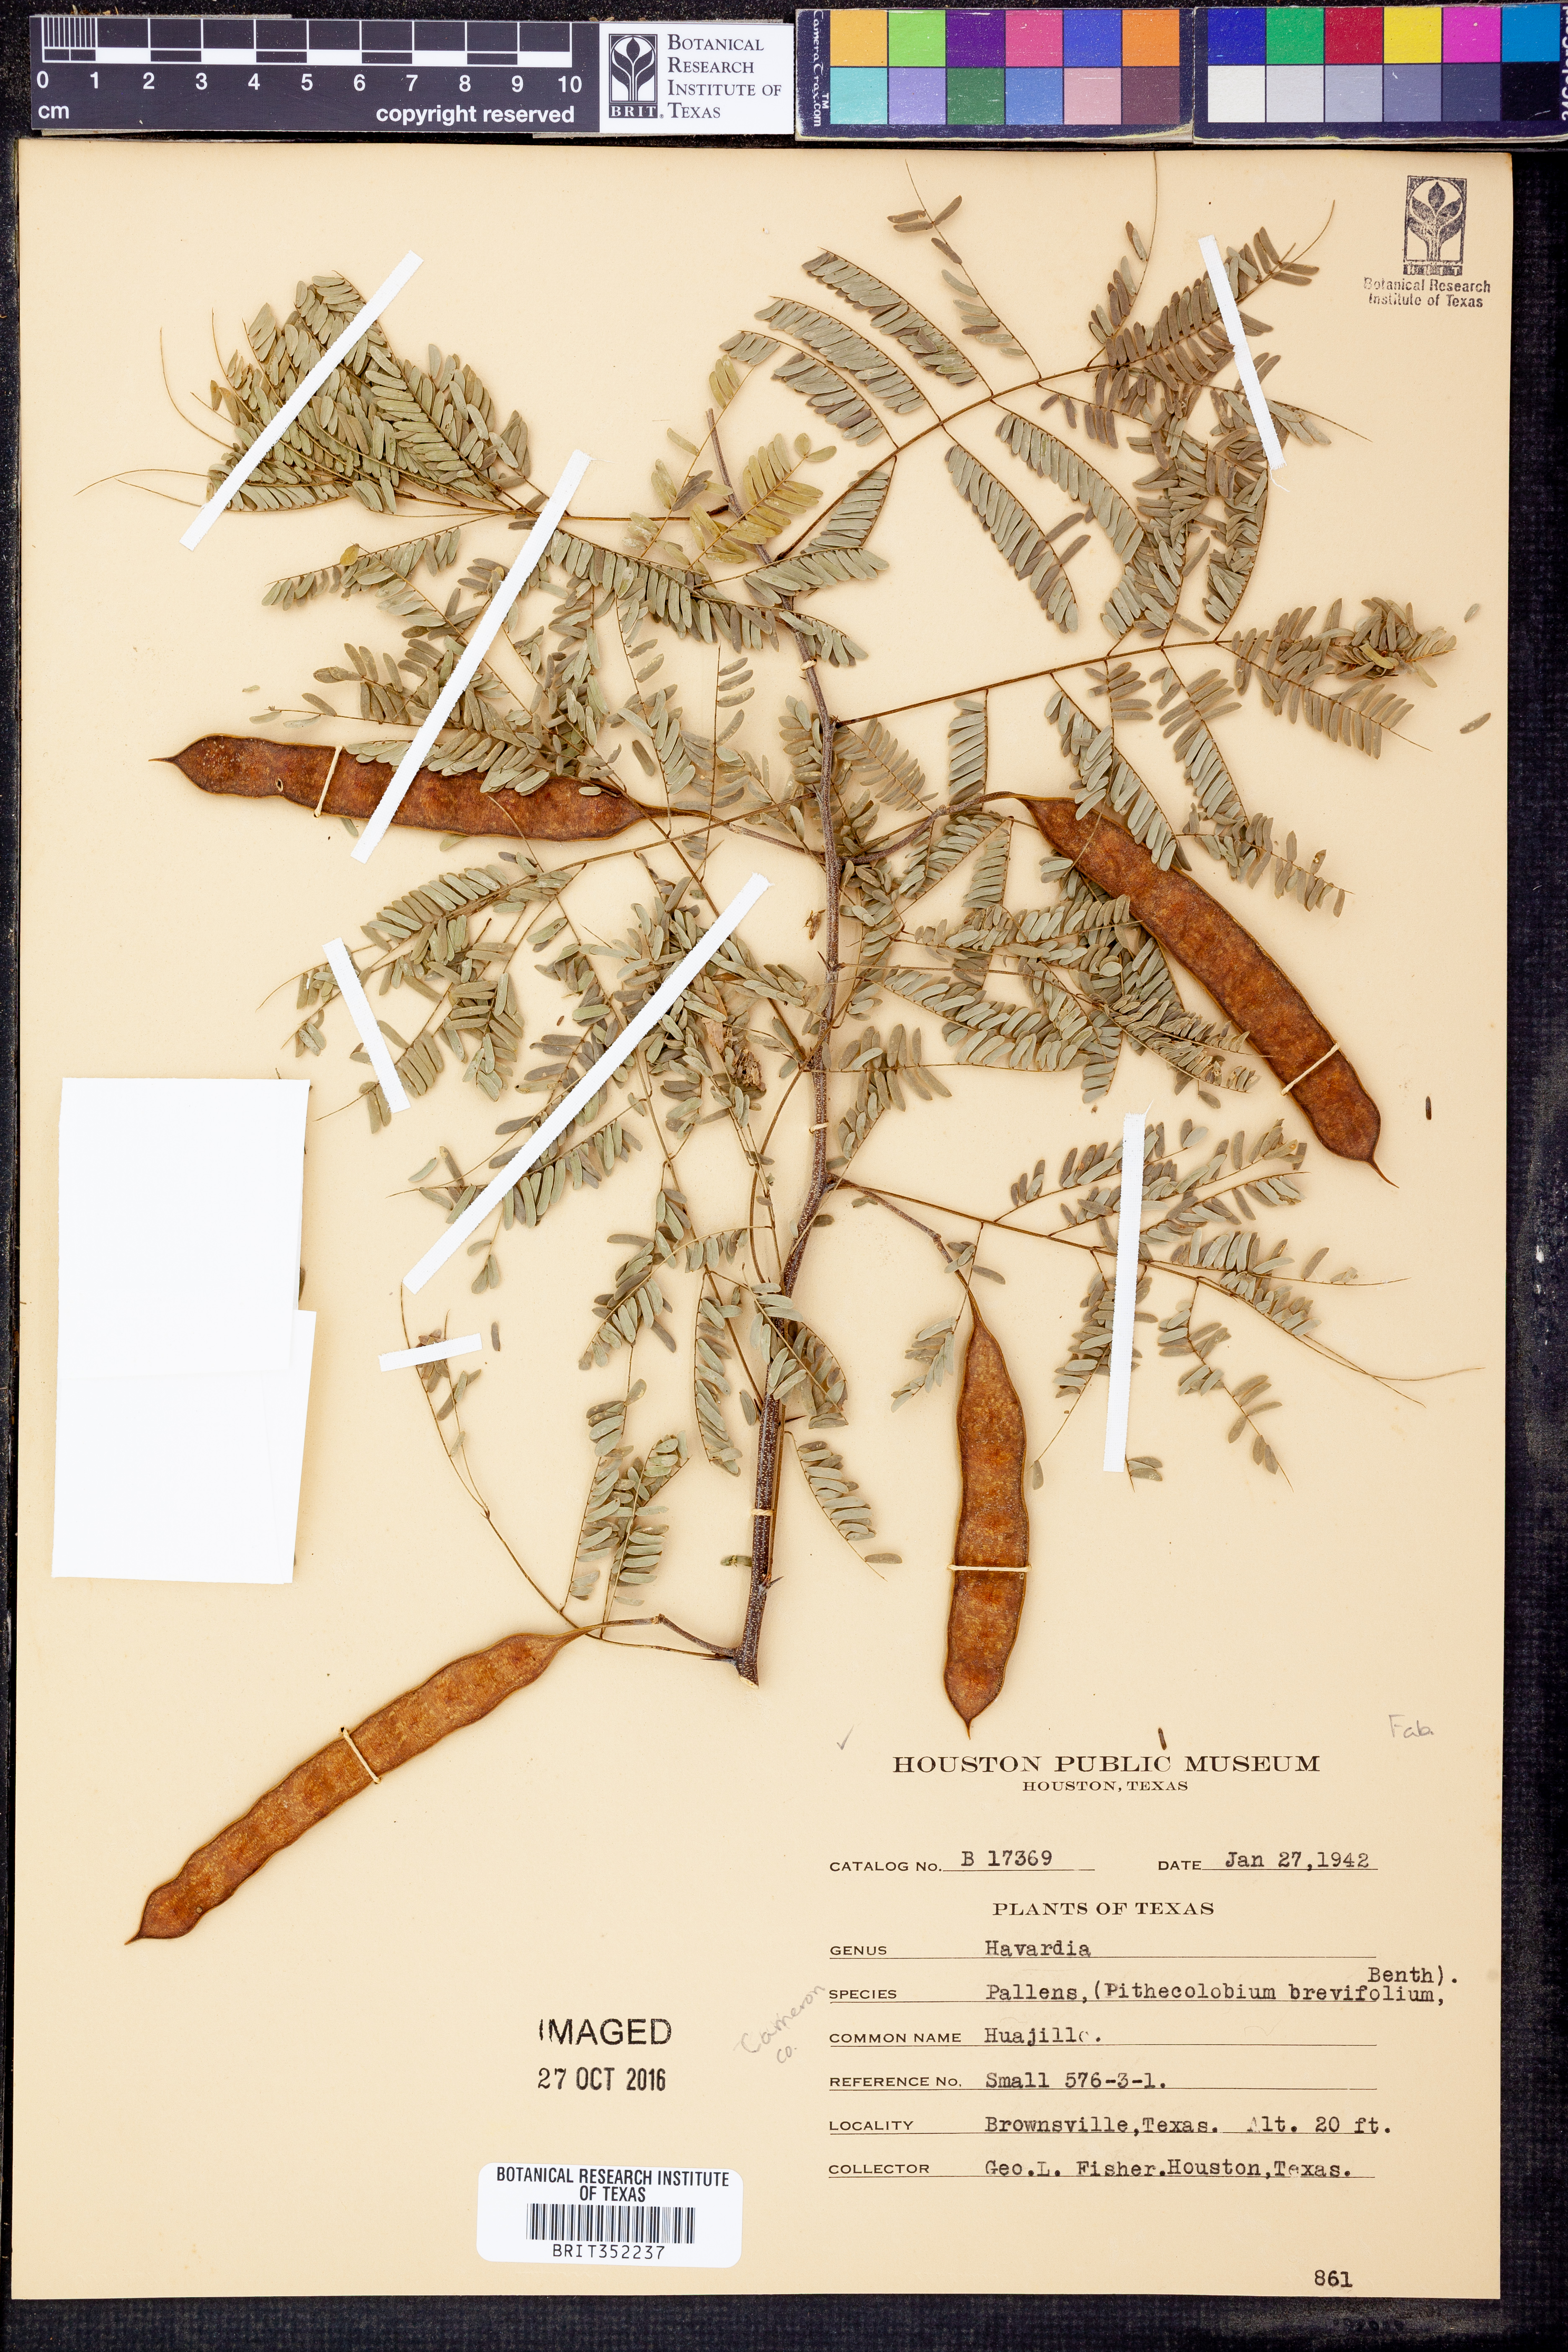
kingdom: Plantae
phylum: Tracheophyta
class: Magnoliopsida
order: Fabales
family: Fabaceae
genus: Havardia
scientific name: Havardia pallens
